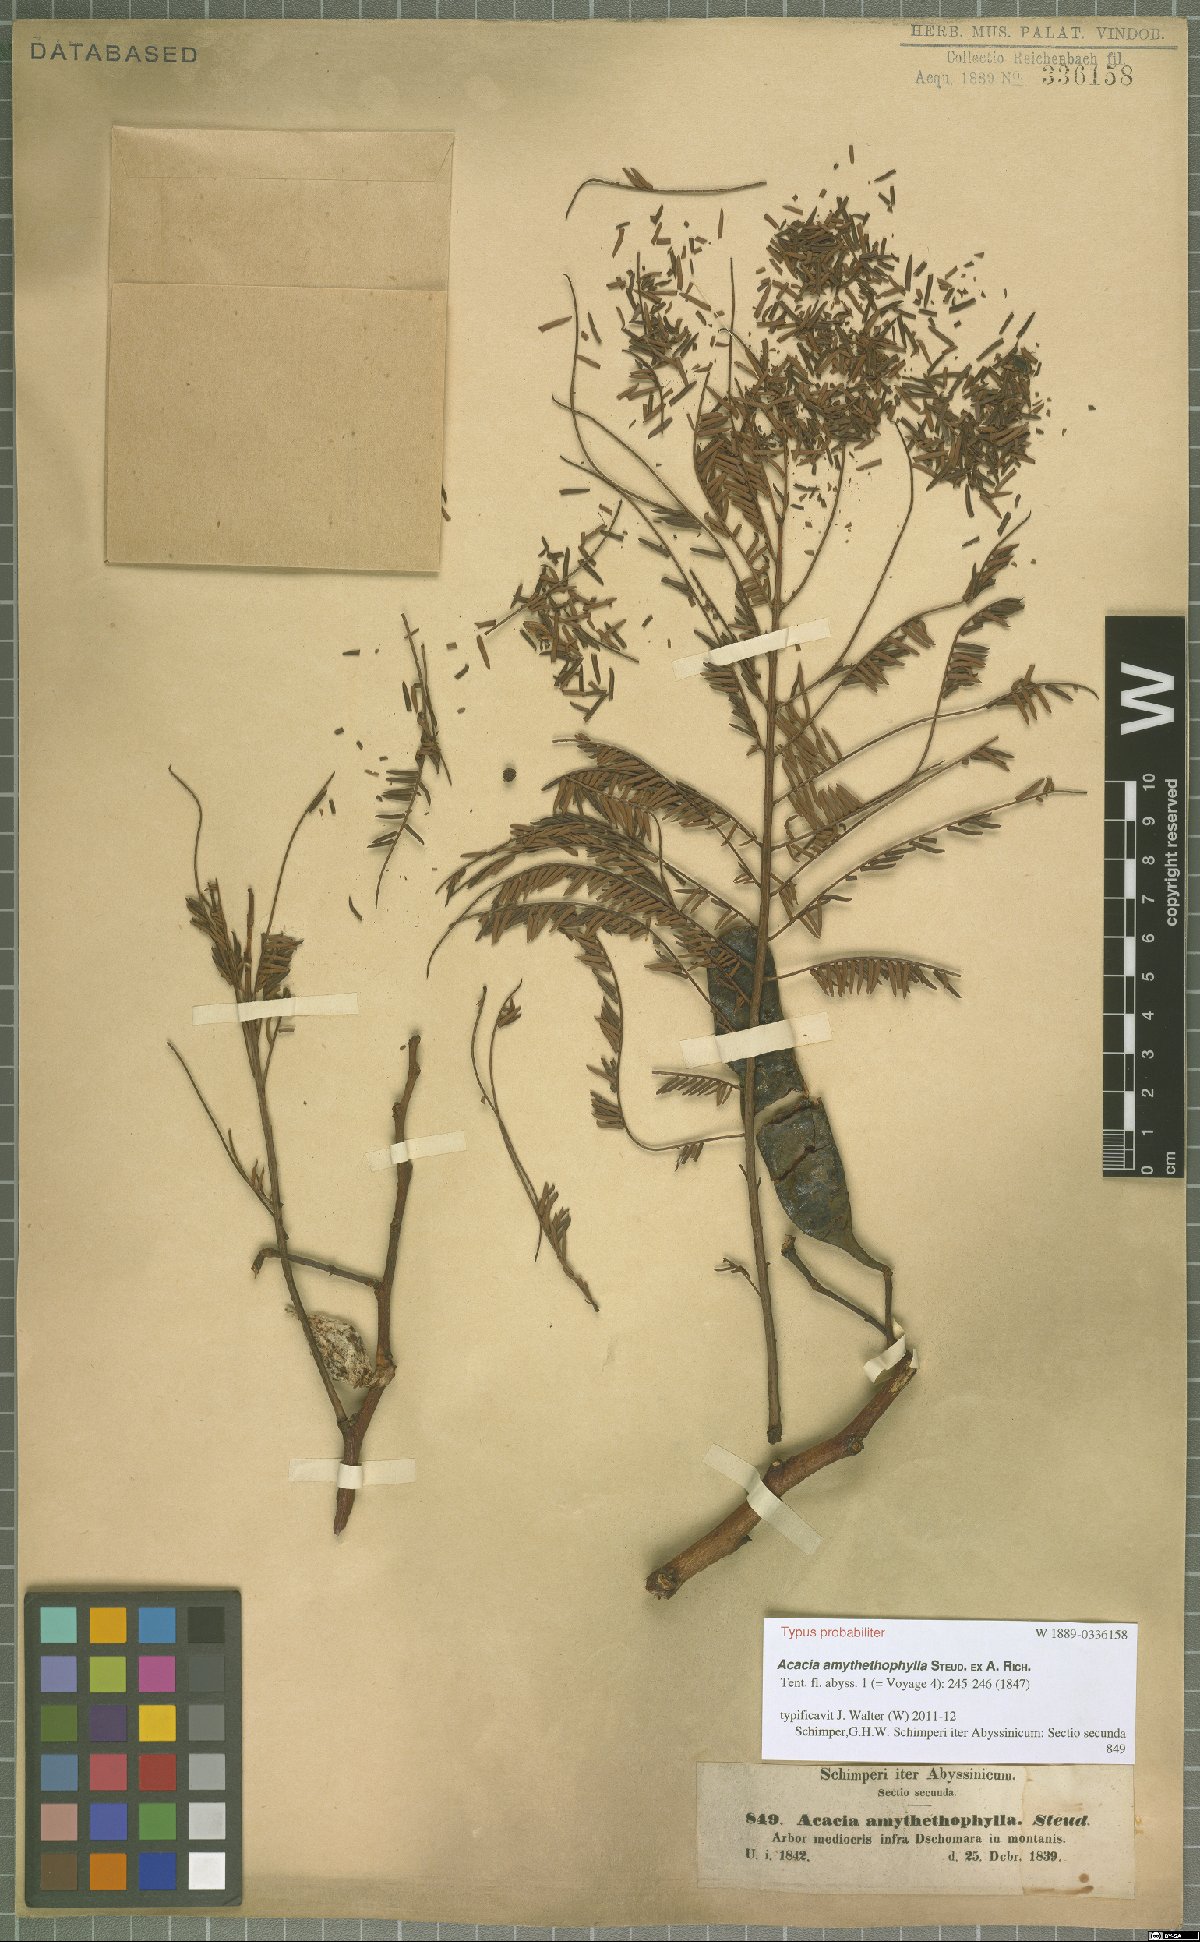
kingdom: Plantae
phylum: Tracheophyta
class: Magnoliopsida
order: Fabales
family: Fabaceae
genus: Vachellia
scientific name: Vachellia amythethophylla
